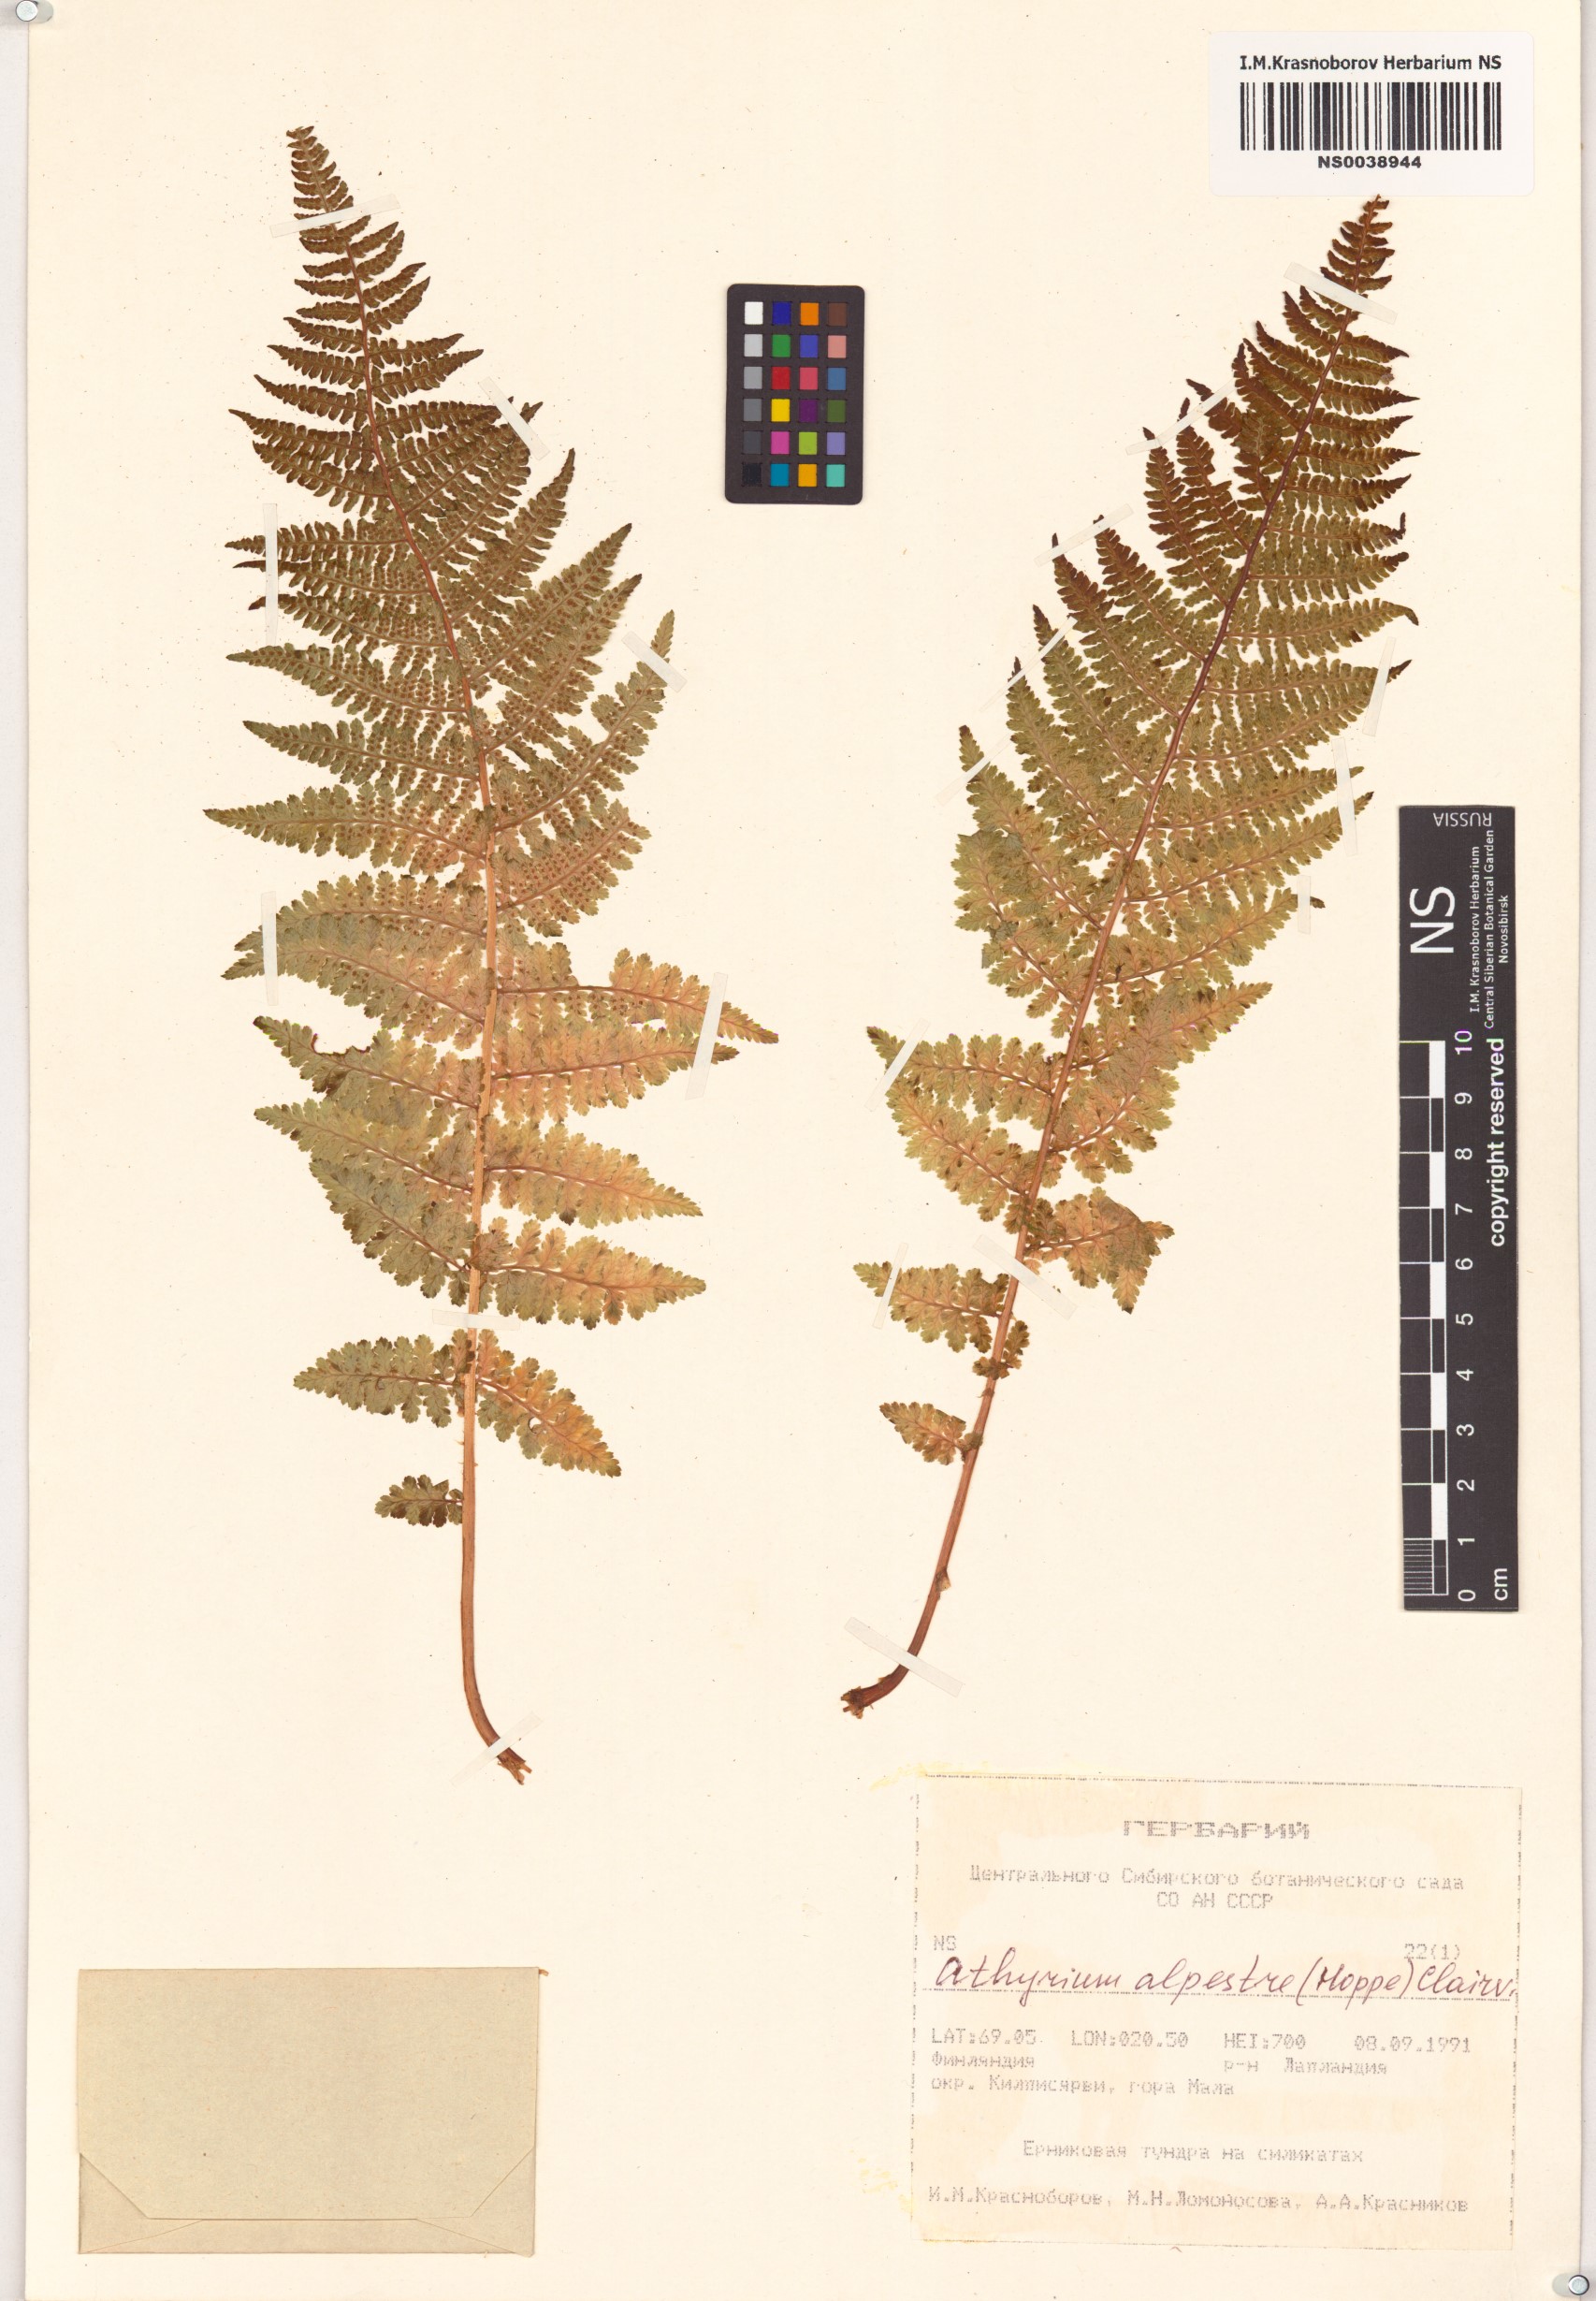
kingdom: Plantae
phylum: Tracheophyta
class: Polypodiopsida
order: Polypodiales
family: Athyriaceae
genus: Pseudathyrium
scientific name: Pseudathyrium alpestre
